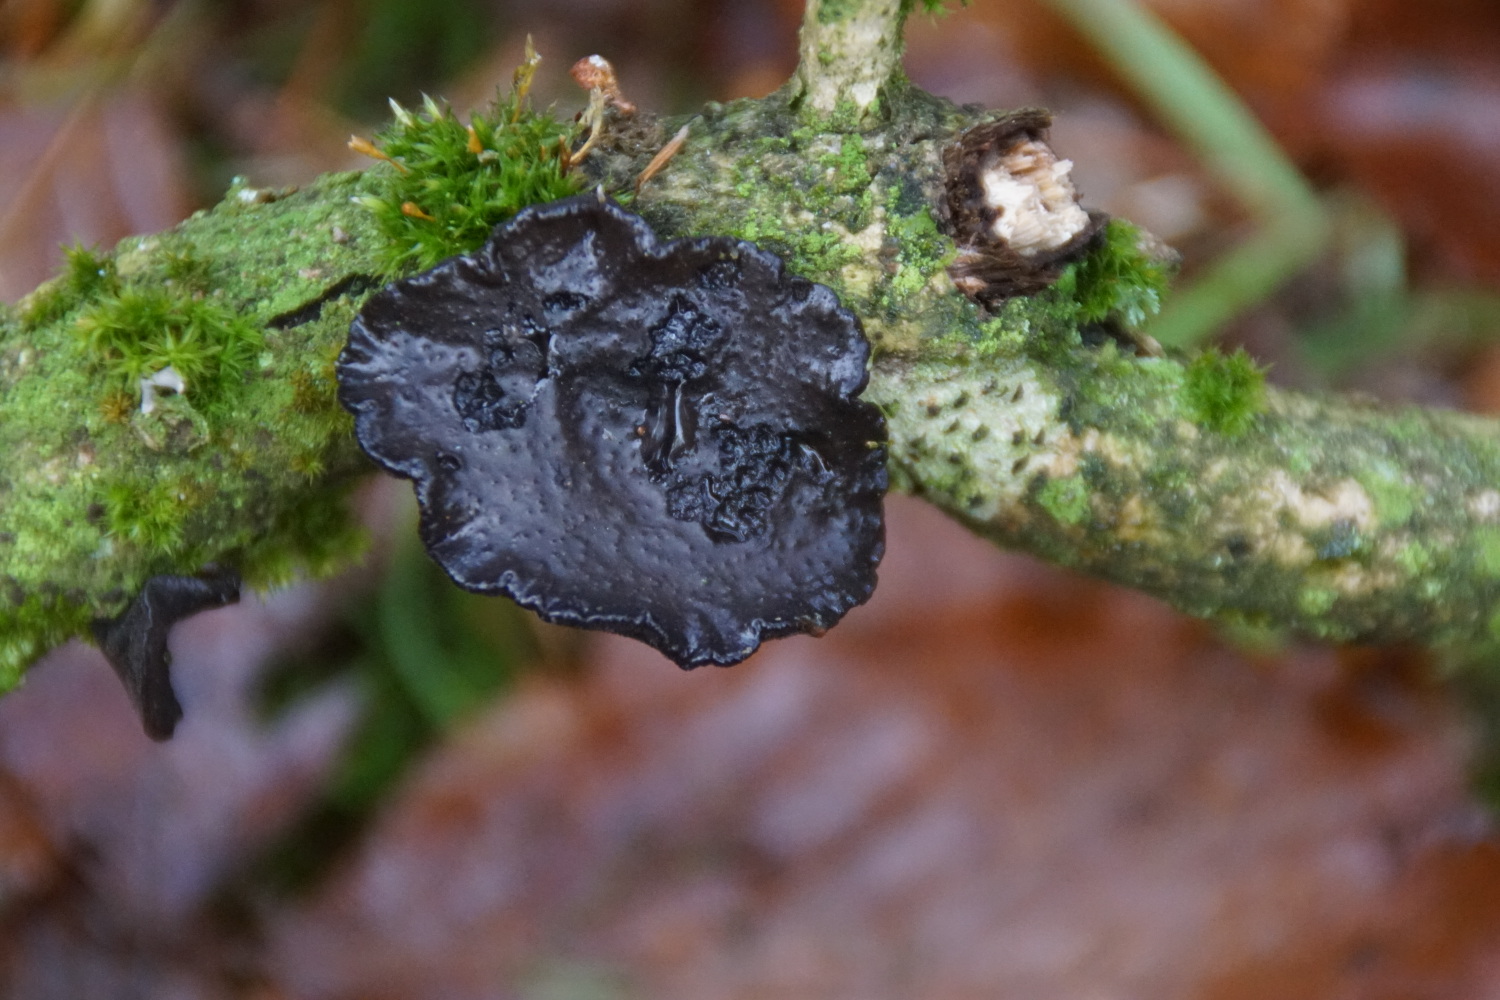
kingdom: Fungi
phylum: Basidiomycota
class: Agaricomycetes
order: Auriculariales
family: Auriculariaceae
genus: Exidia
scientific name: Exidia glandulosa
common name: ege-bævretop
